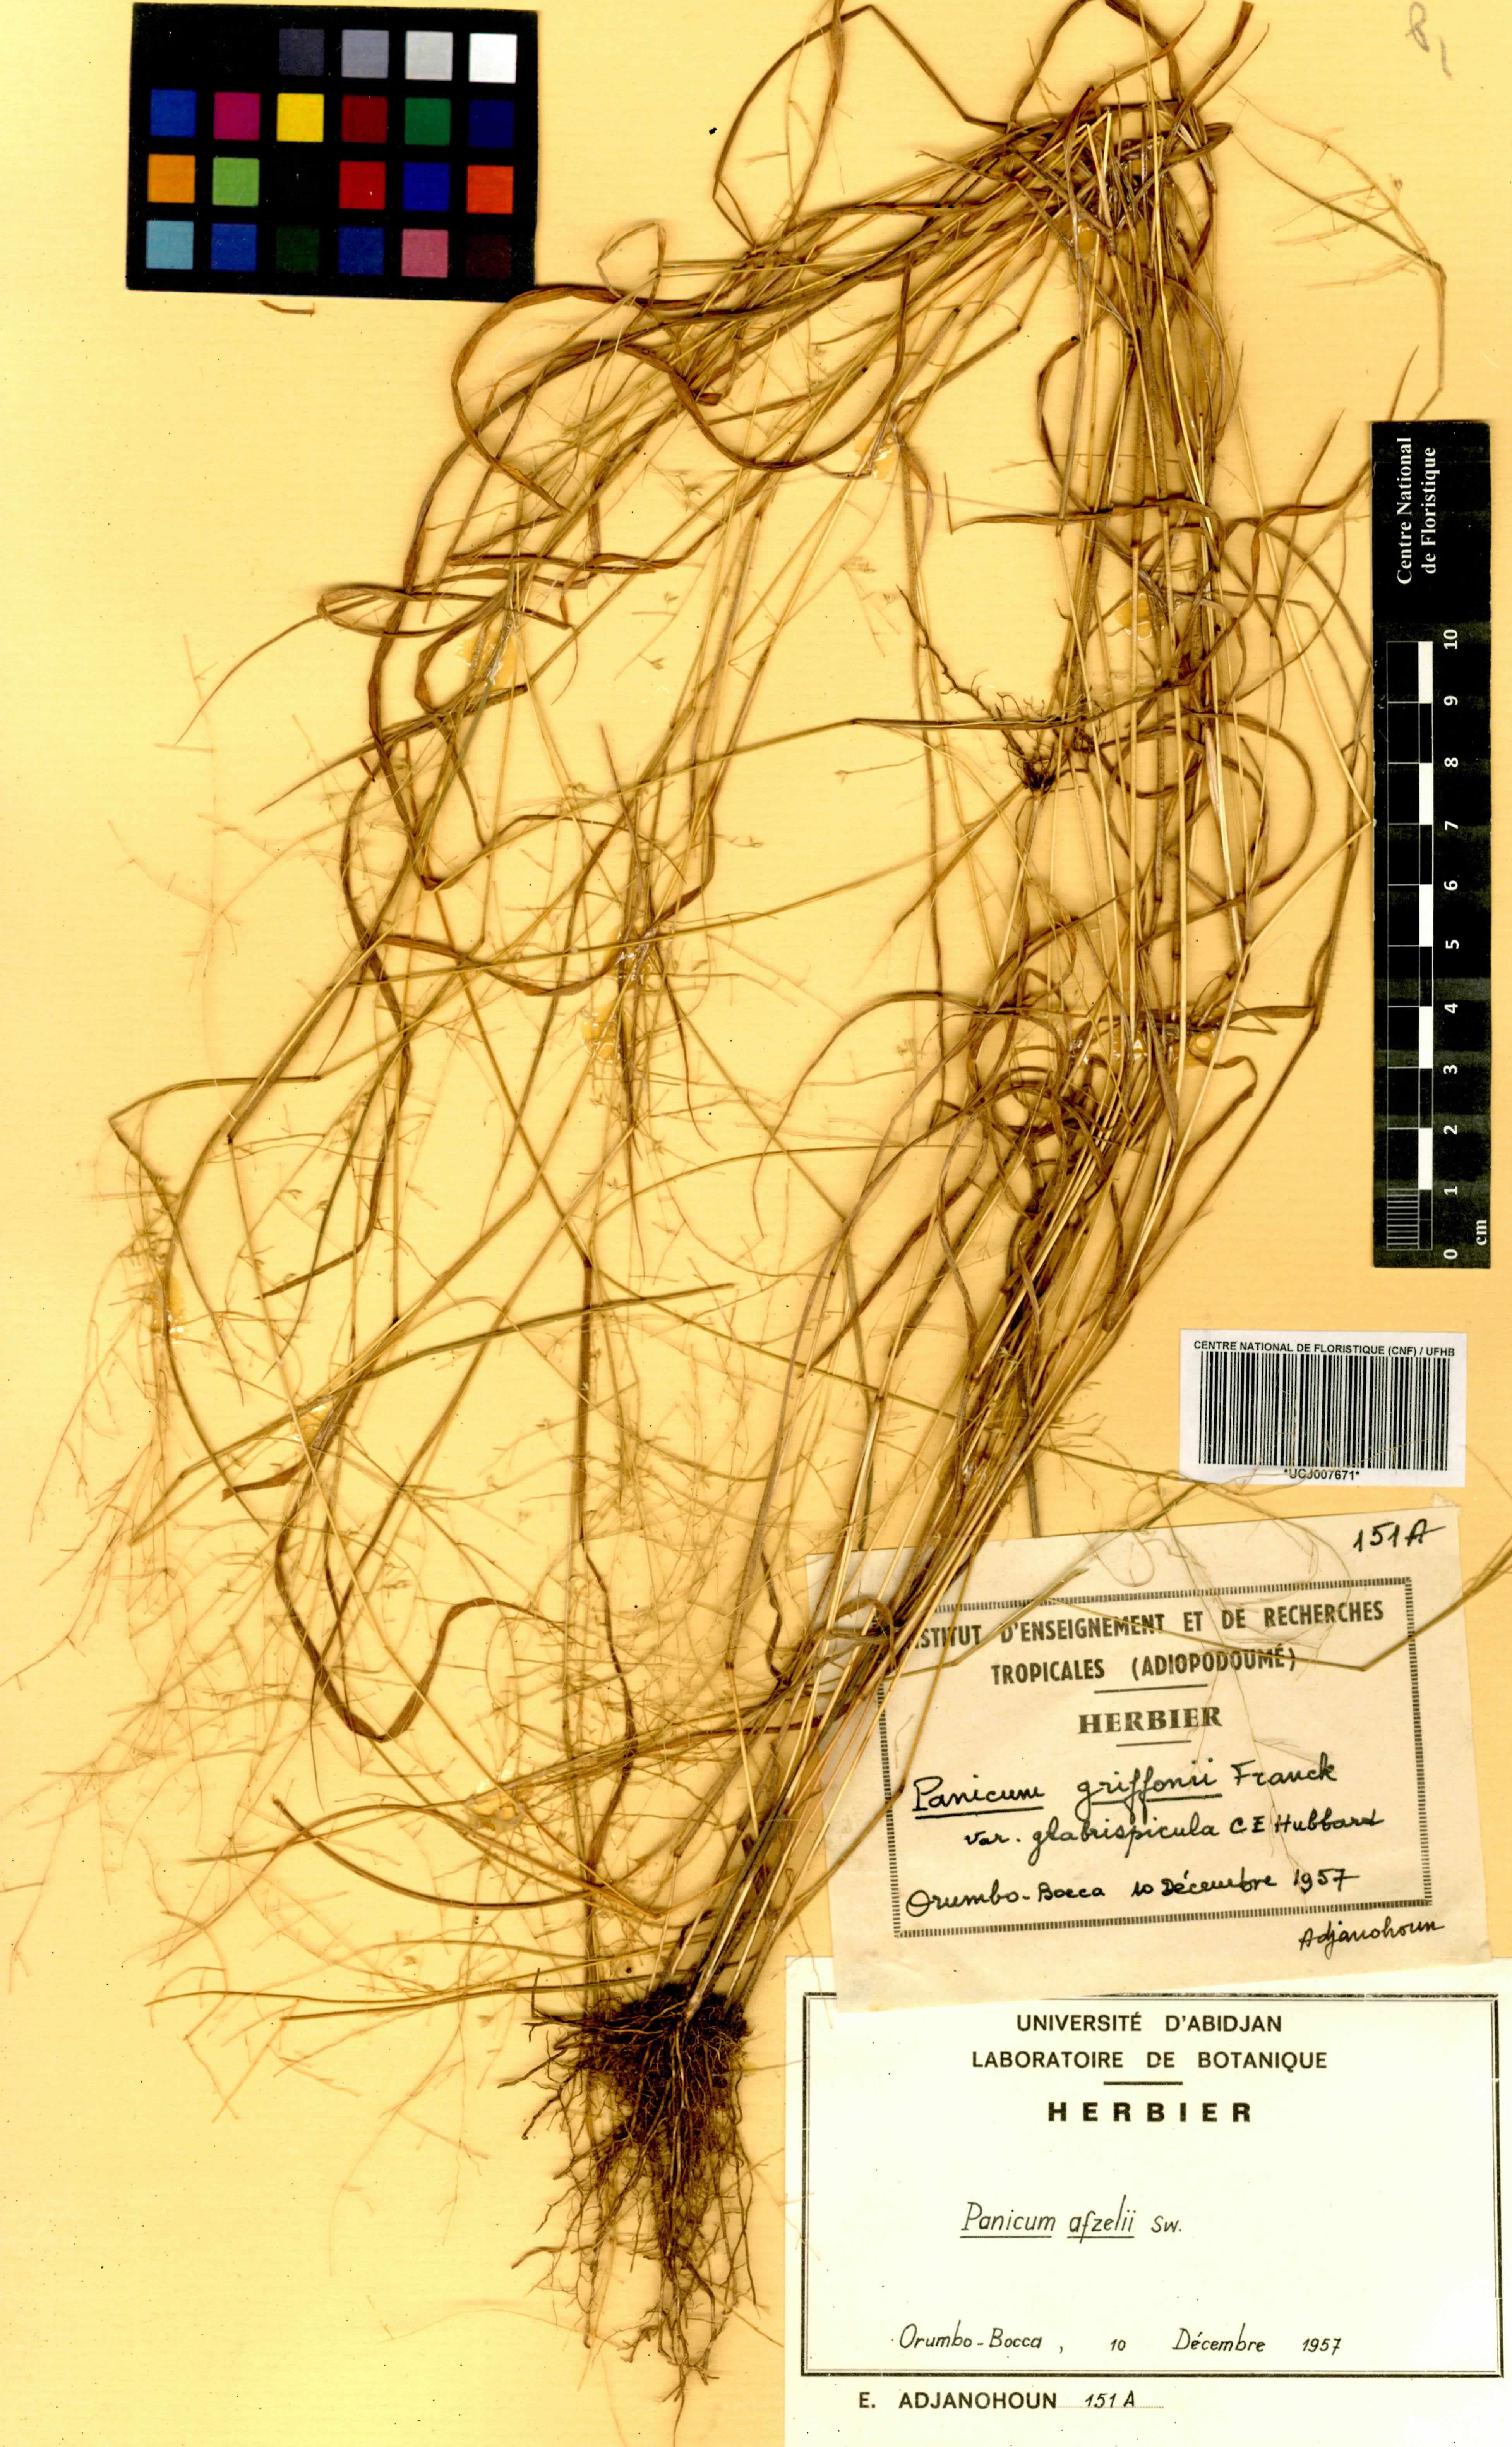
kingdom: Plantae
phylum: Tracheophyta
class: Liliopsida
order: Poales
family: Poaceae
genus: Panicum
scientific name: Panicum afzelii
